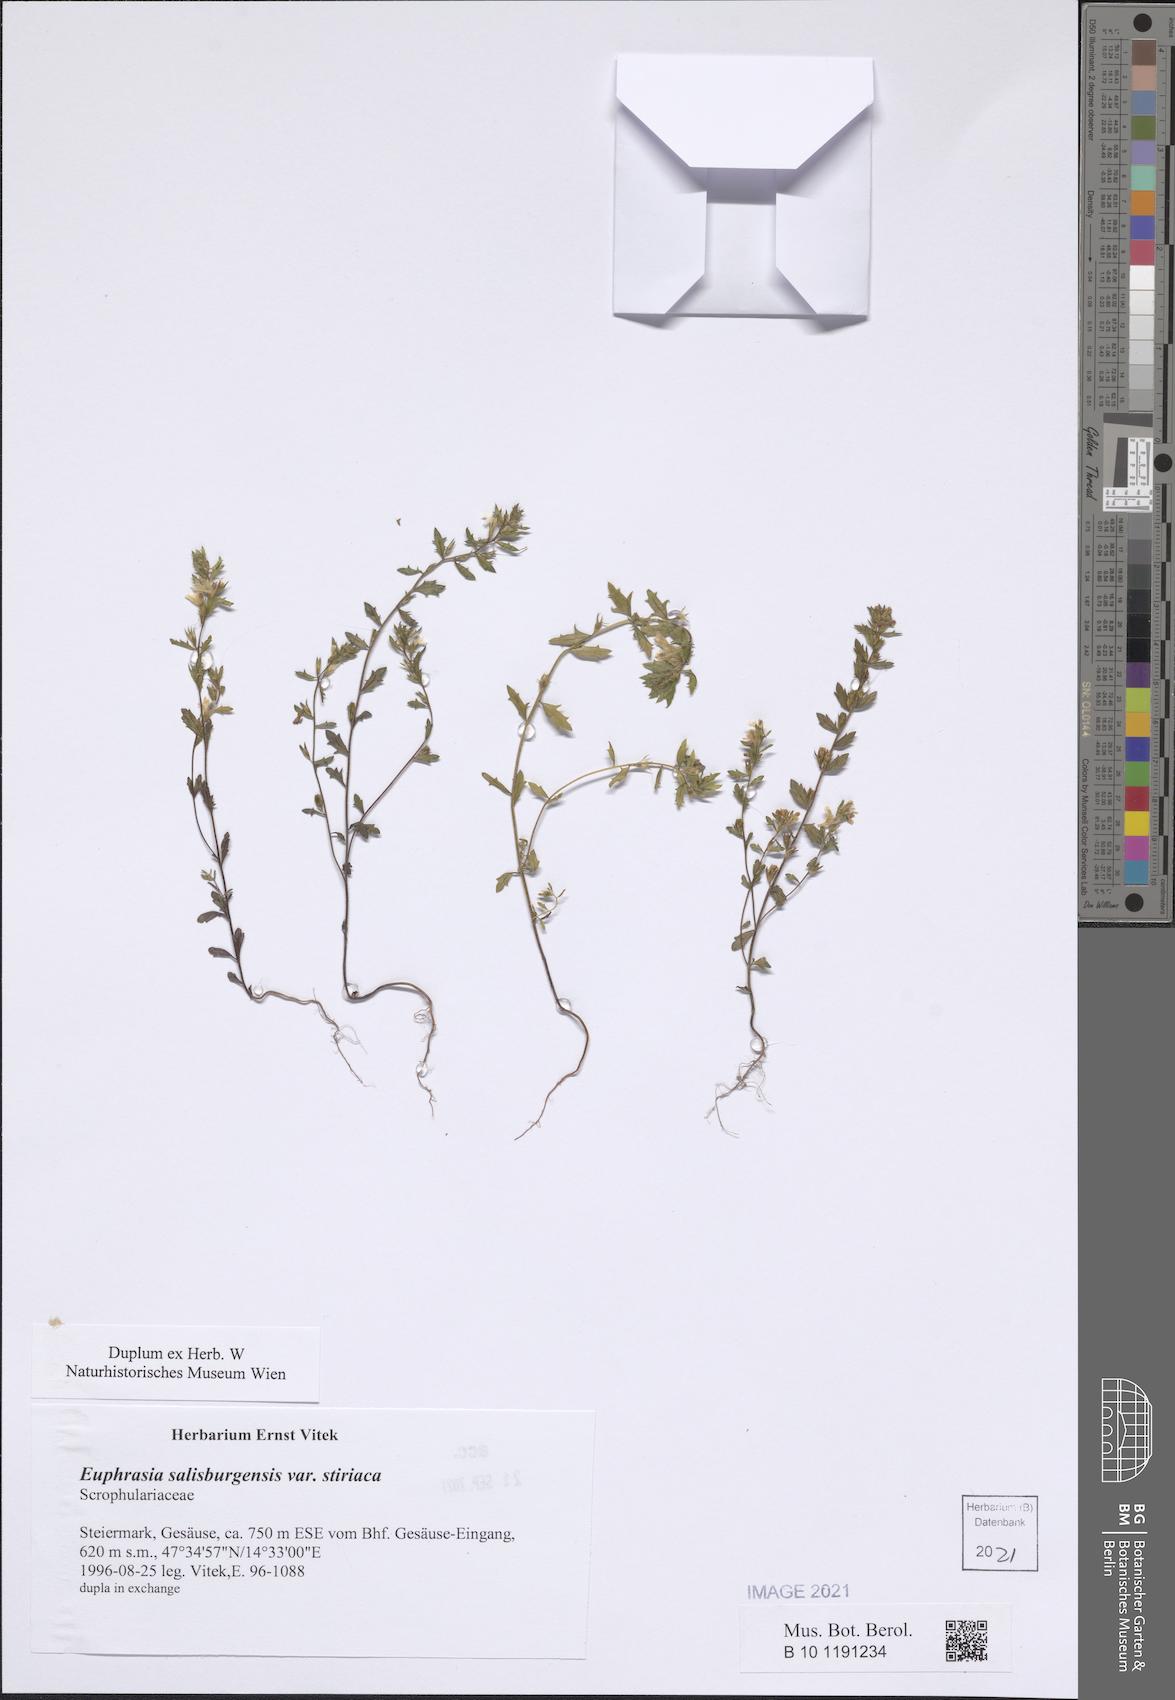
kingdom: Plantae
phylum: Tracheophyta
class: Magnoliopsida
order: Lamiales
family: Orobanchaceae
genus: Euphrasia
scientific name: Euphrasia salisburgensis
